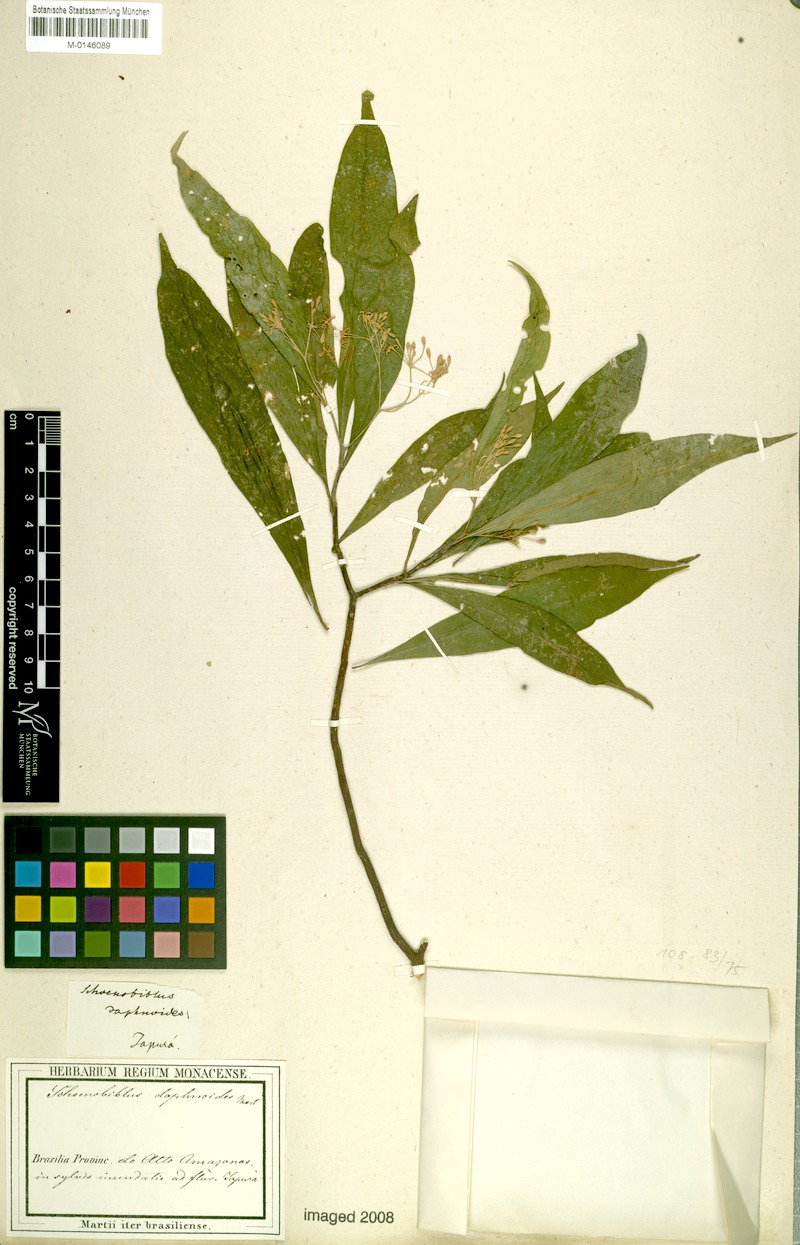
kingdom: Plantae
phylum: Tracheophyta
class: Magnoliopsida
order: Malvales
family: Thymelaeaceae
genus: Schoenobiblus
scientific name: Schoenobiblus daphnoides
